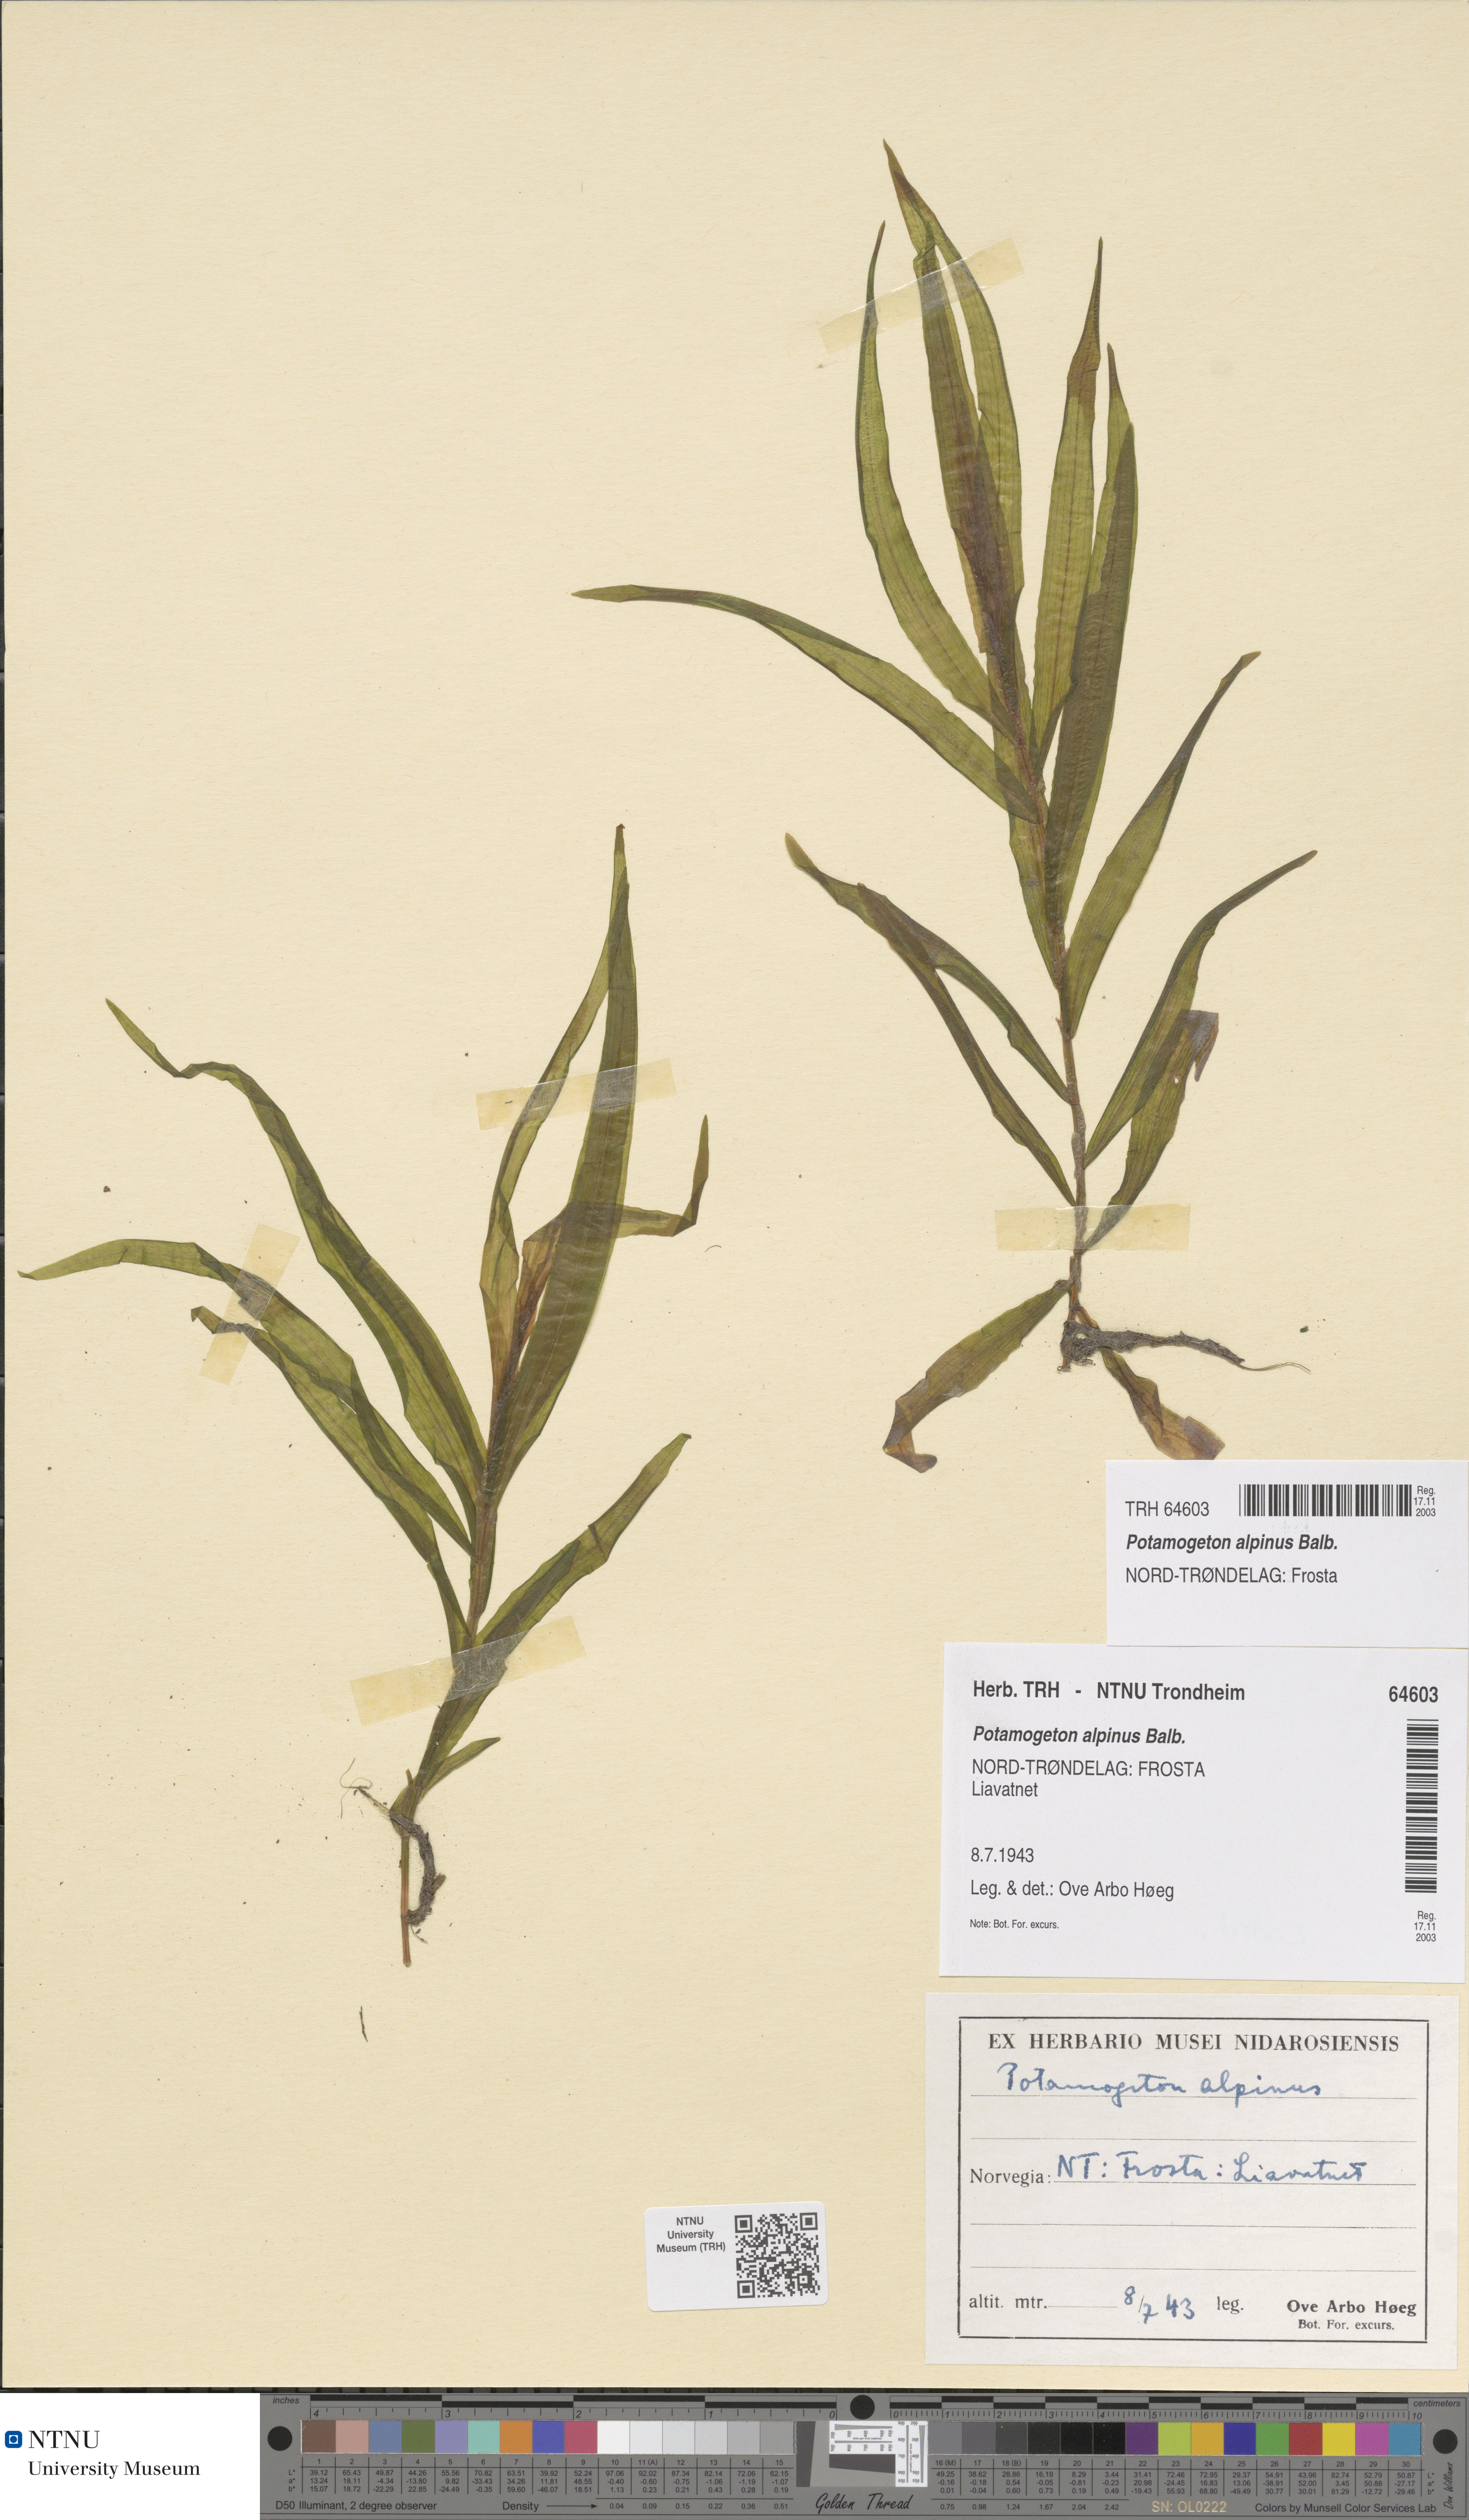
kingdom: Plantae
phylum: Tracheophyta
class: Liliopsida
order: Alismatales
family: Potamogetonaceae
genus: Potamogeton
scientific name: Potamogeton alpinus
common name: Red pondweed
